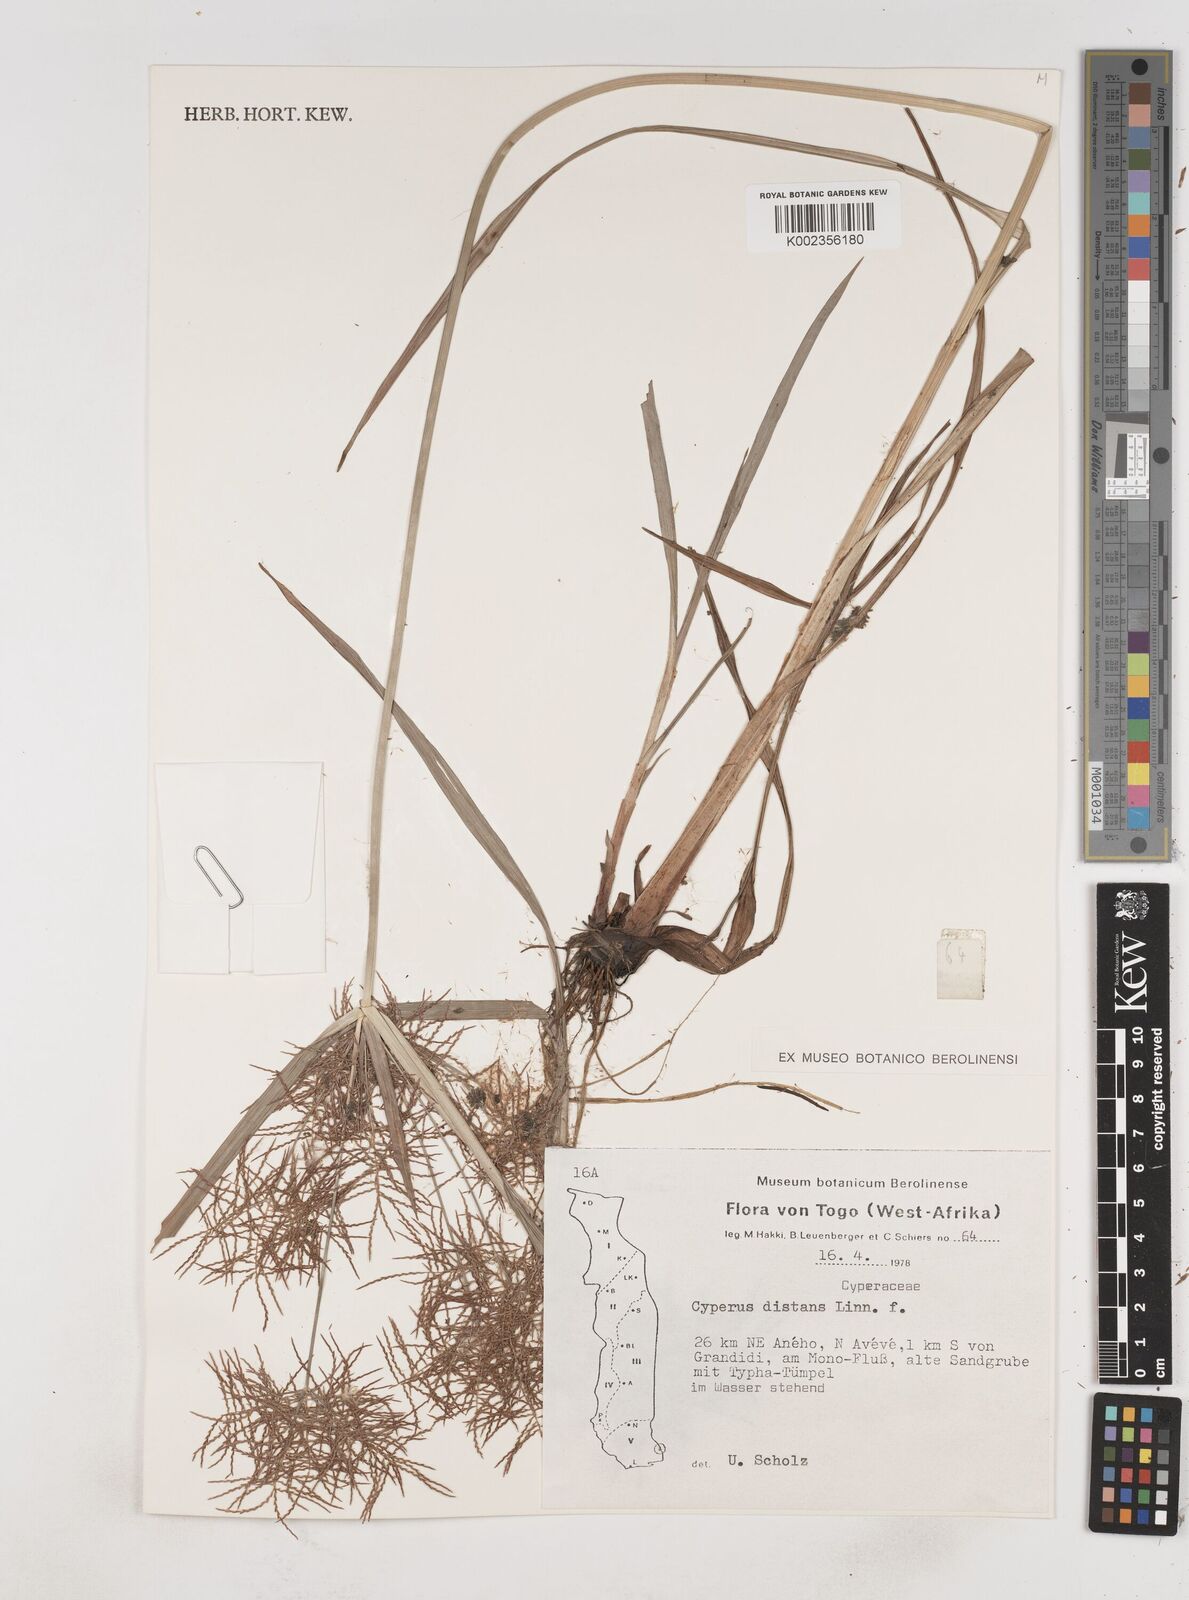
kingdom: Plantae
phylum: Tracheophyta
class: Liliopsida
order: Poales
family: Cyperaceae
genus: Cyperus
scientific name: Cyperus distans
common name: Slender cyperus
